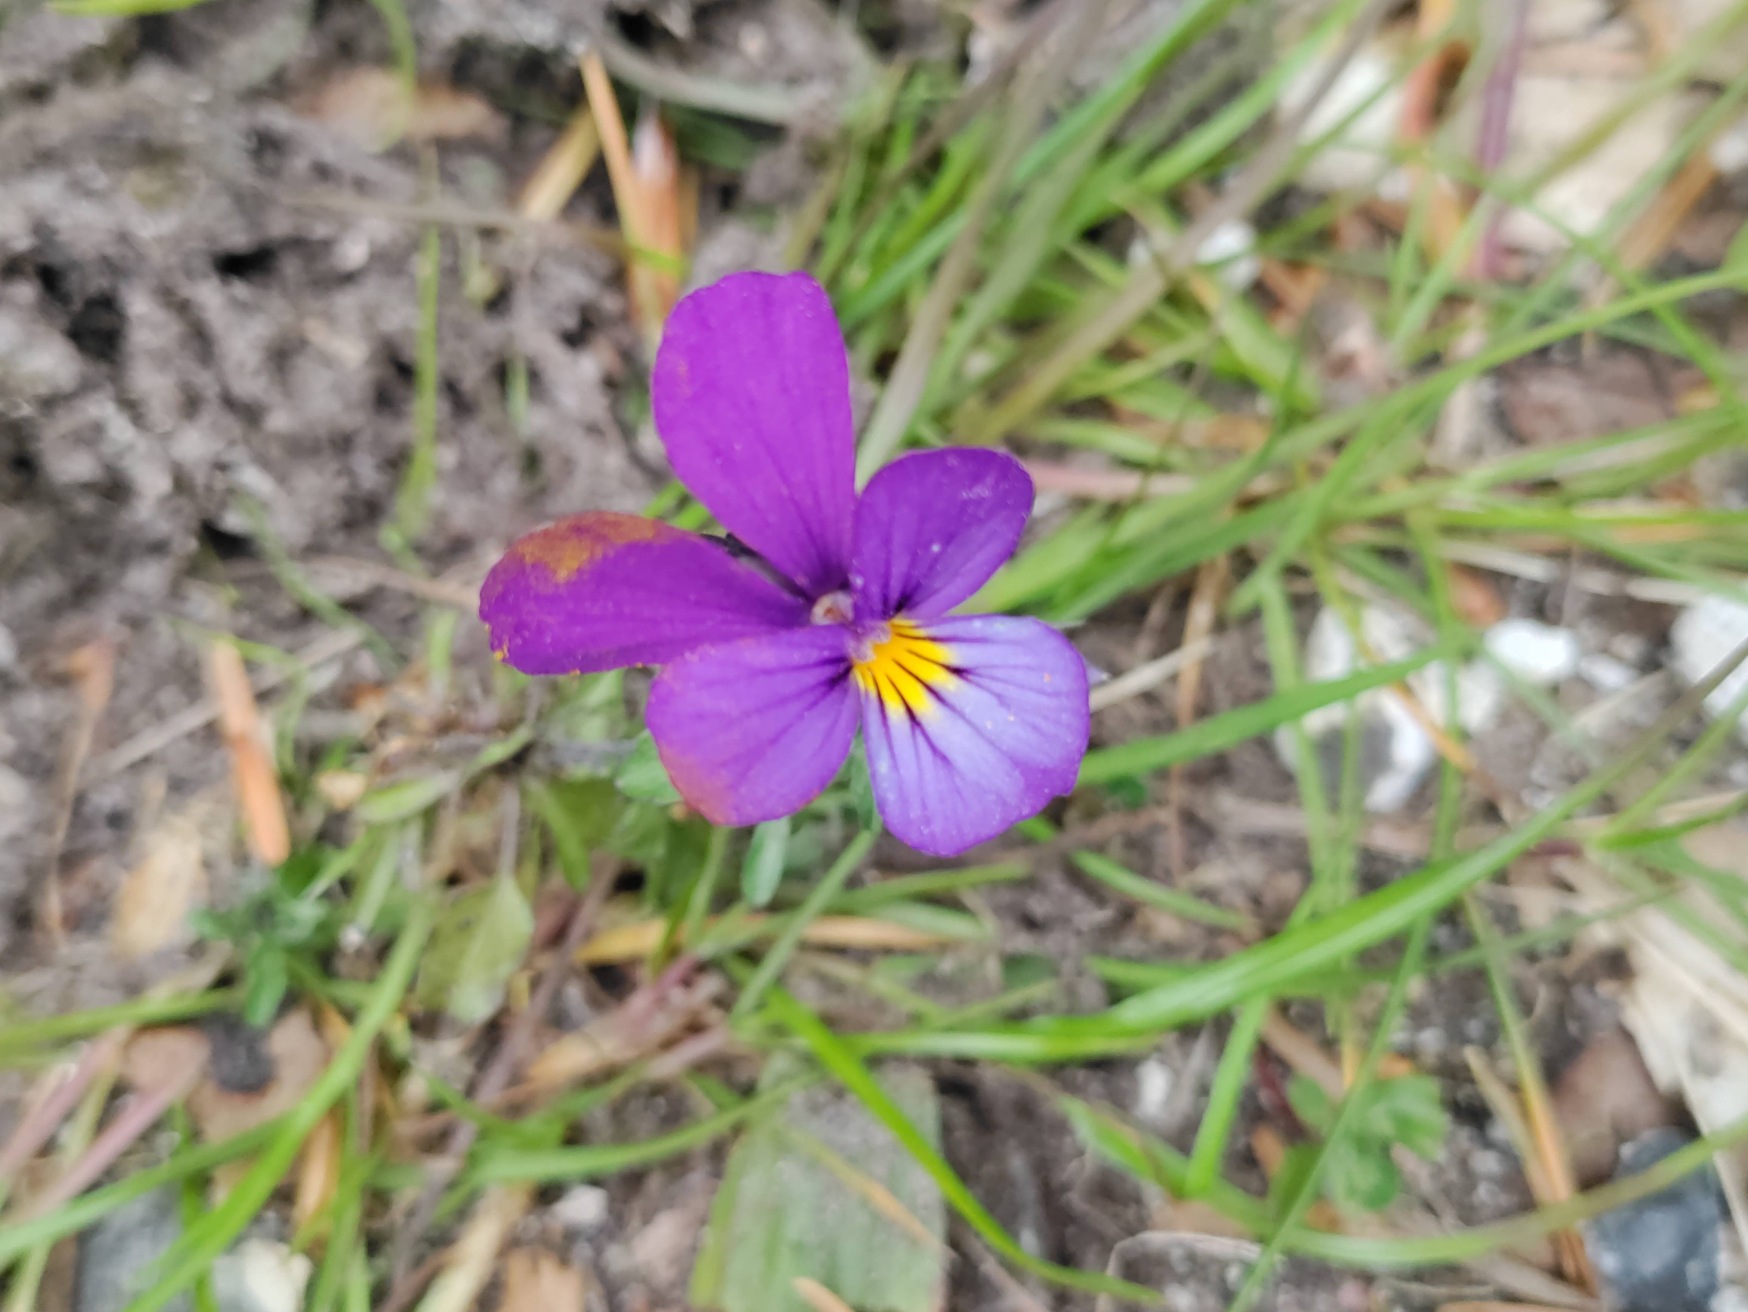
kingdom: Plantae
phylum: Tracheophyta
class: Magnoliopsida
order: Malpighiales
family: Violaceae
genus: Viola
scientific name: Viola tricolor
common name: Stedmoderblomst
